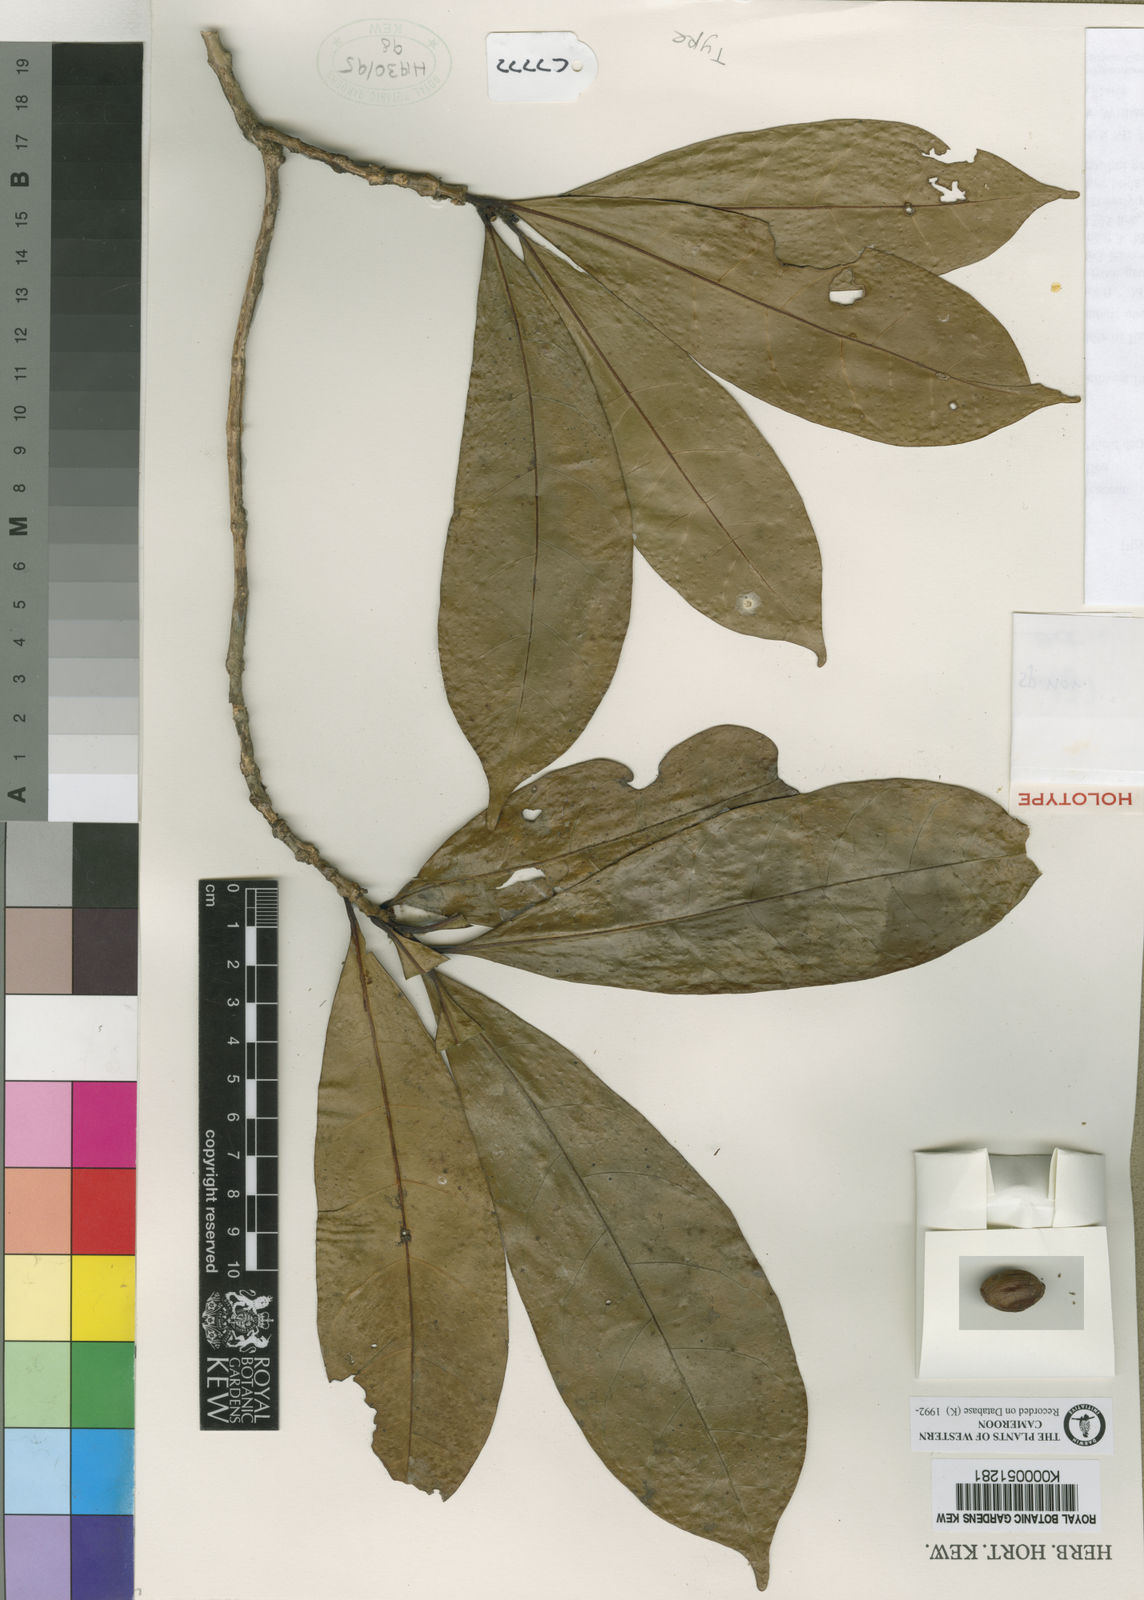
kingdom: Plantae
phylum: Tracheophyta
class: Magnoliopsida
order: Gentianales
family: Rubiaceae
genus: Coffea
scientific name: Coffea montekupensis
